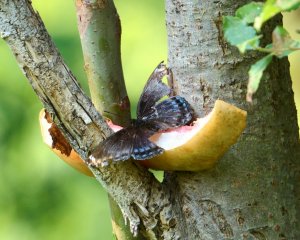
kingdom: Animalia
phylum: Arthropoda
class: Insecta
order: Lepidoptera
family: Nymphalidae
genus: Limenitis
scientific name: Limenitis astyanax
